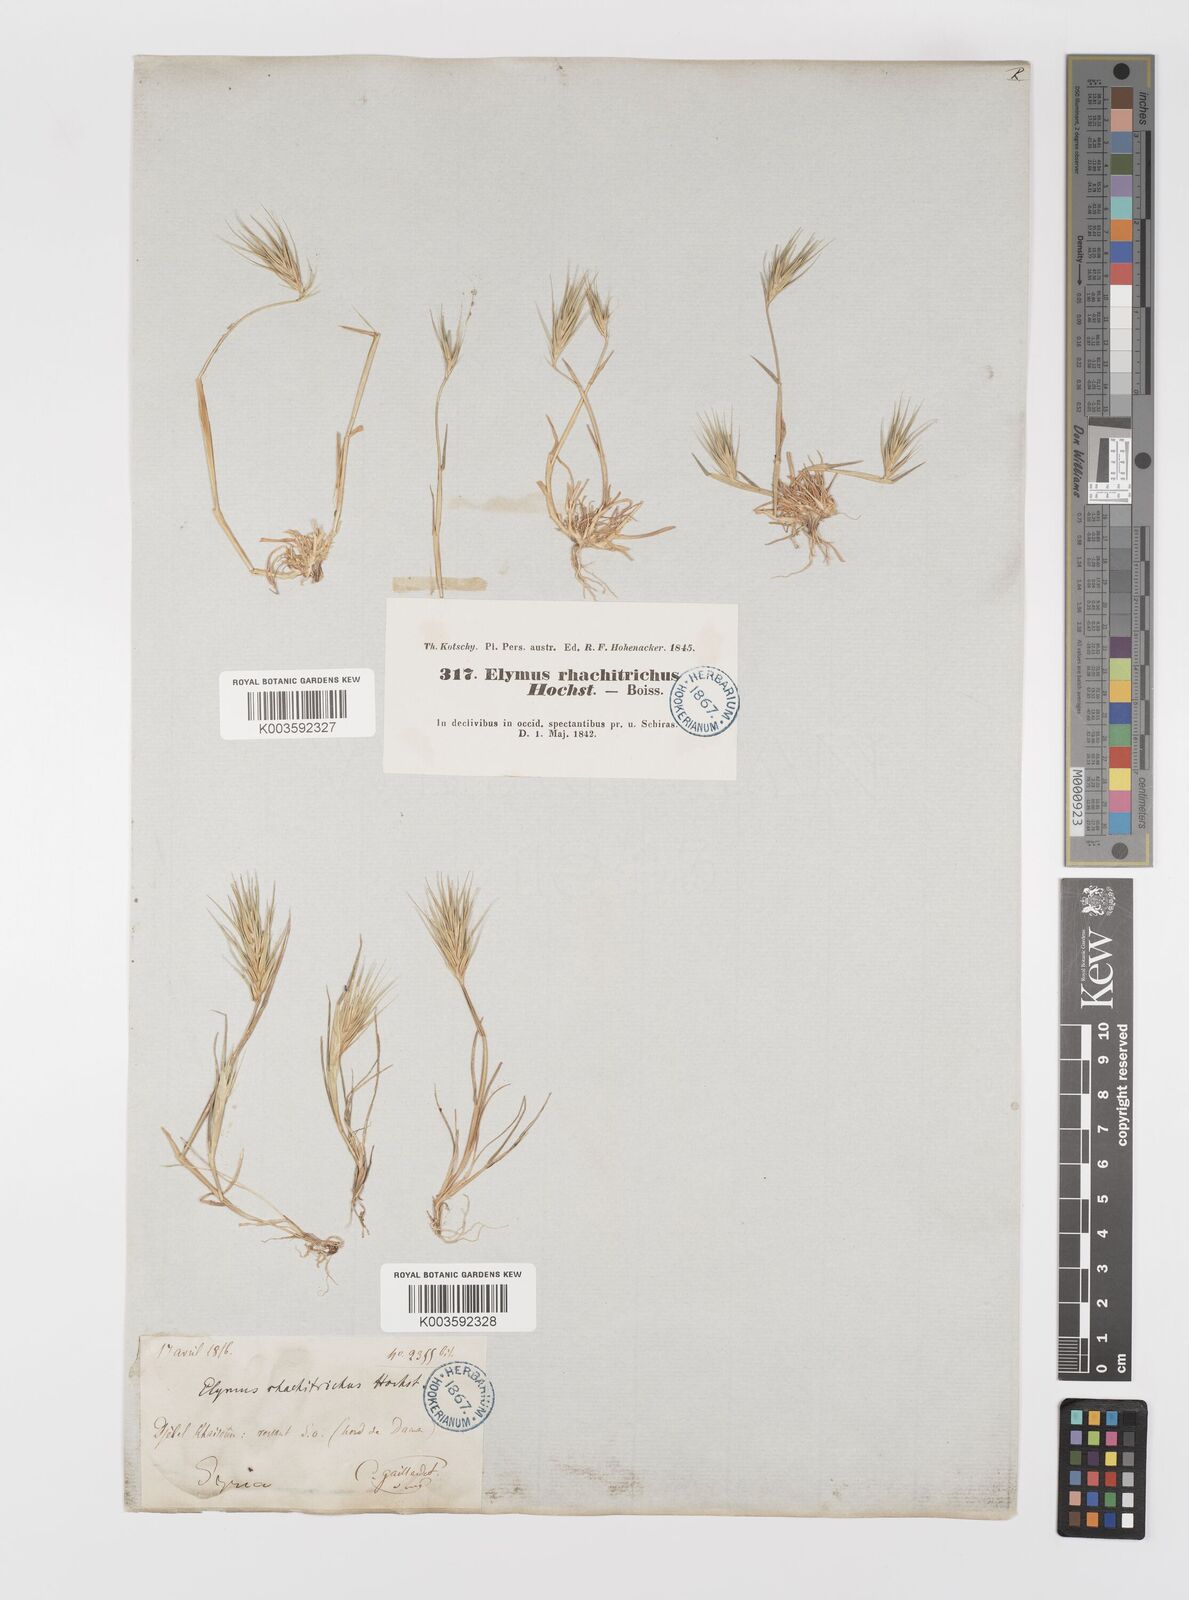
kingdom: Plantae
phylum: Tracheophyta
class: Liliopsida
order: Poales
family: Poaceae
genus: Crithopsis
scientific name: Crithopsis delileana
